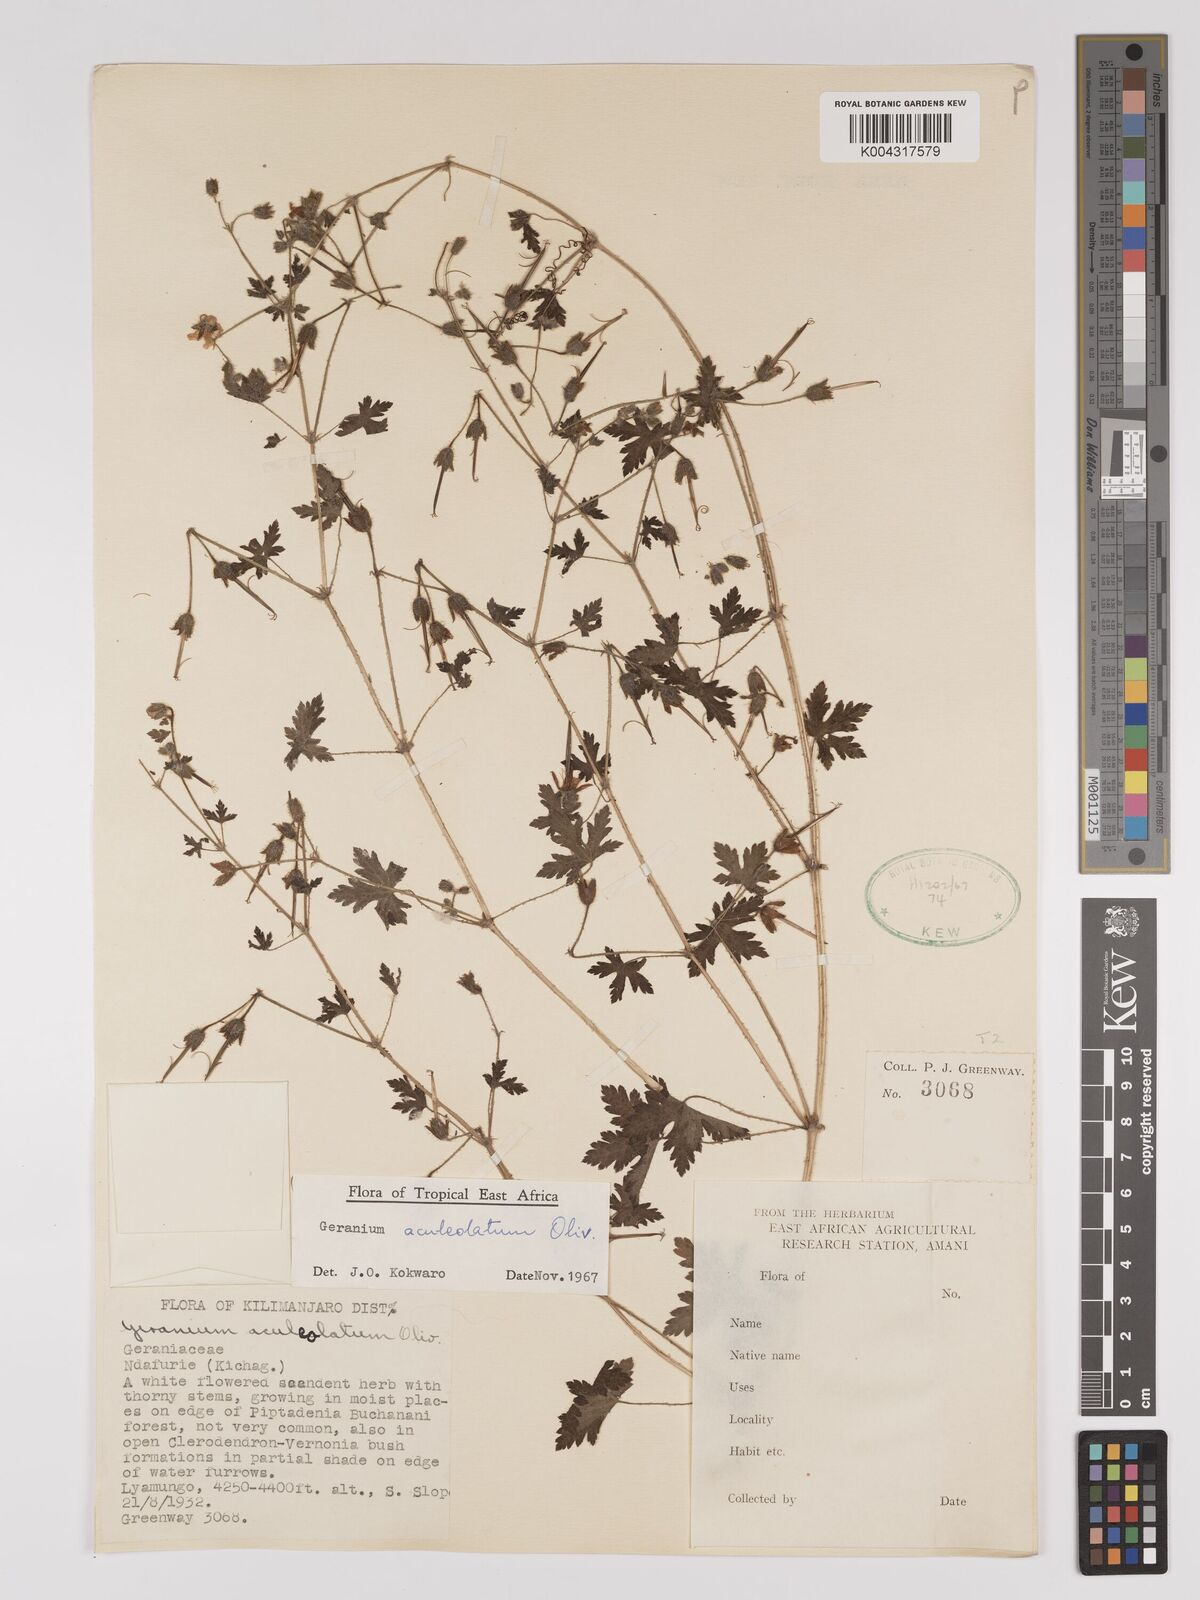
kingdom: Plantae
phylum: Tracheophyta
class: Magnoliopsida
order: Geraniales
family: Geraniaceae
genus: Geranium
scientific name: Geranium aculeolatum
